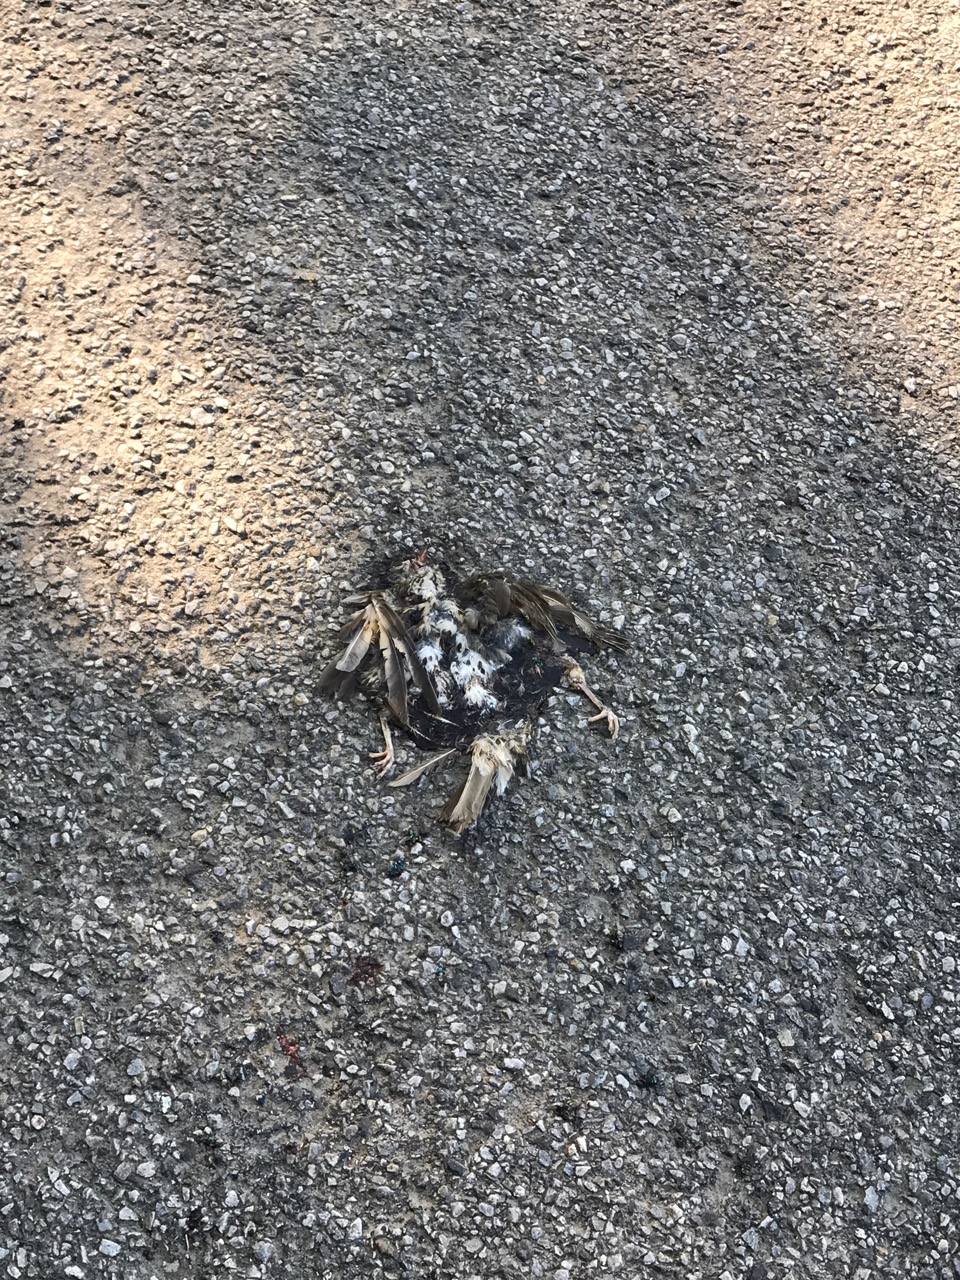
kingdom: Animalia
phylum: Chordata
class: Aves
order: Passeriformes
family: Turdidae
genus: Turdus
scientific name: Turdus philomelos
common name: Song thrush
